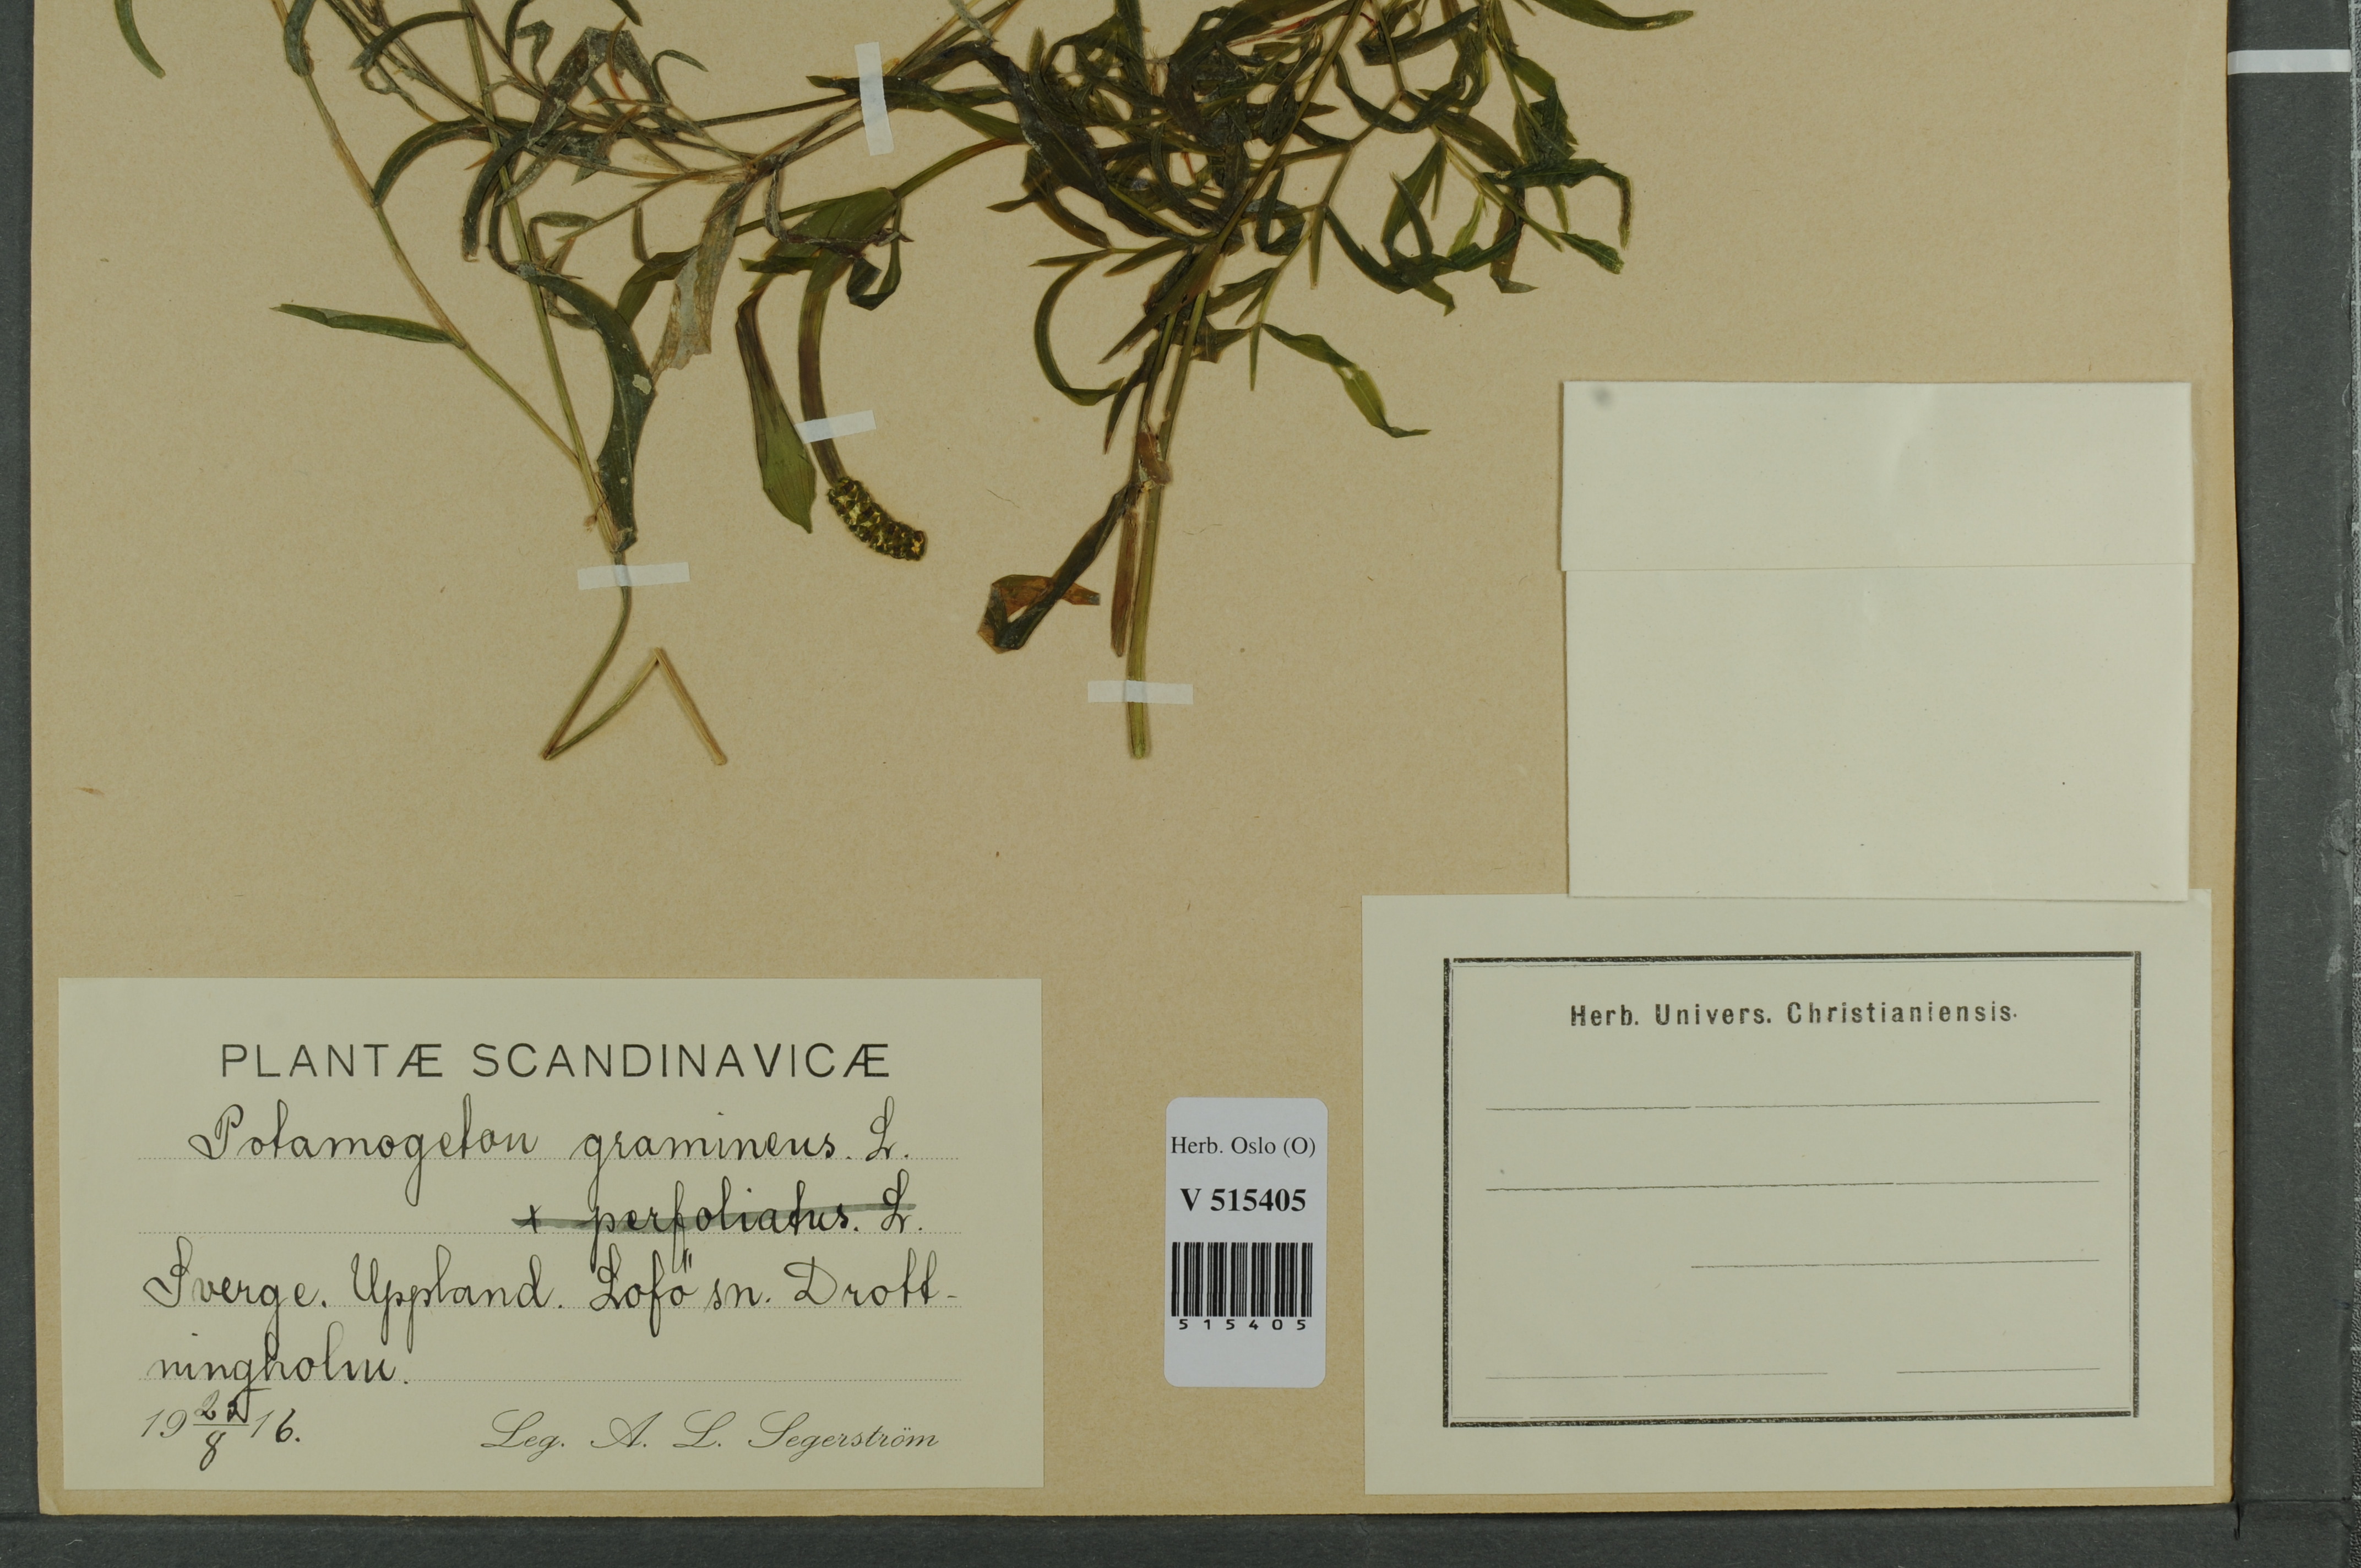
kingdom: Plantae
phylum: Tracheophyta
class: Liliopsida
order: Alismatales
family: Potamogetonaceae
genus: Potamogeton
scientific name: Potamogeton gramineus
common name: Various-leaved pondweed
